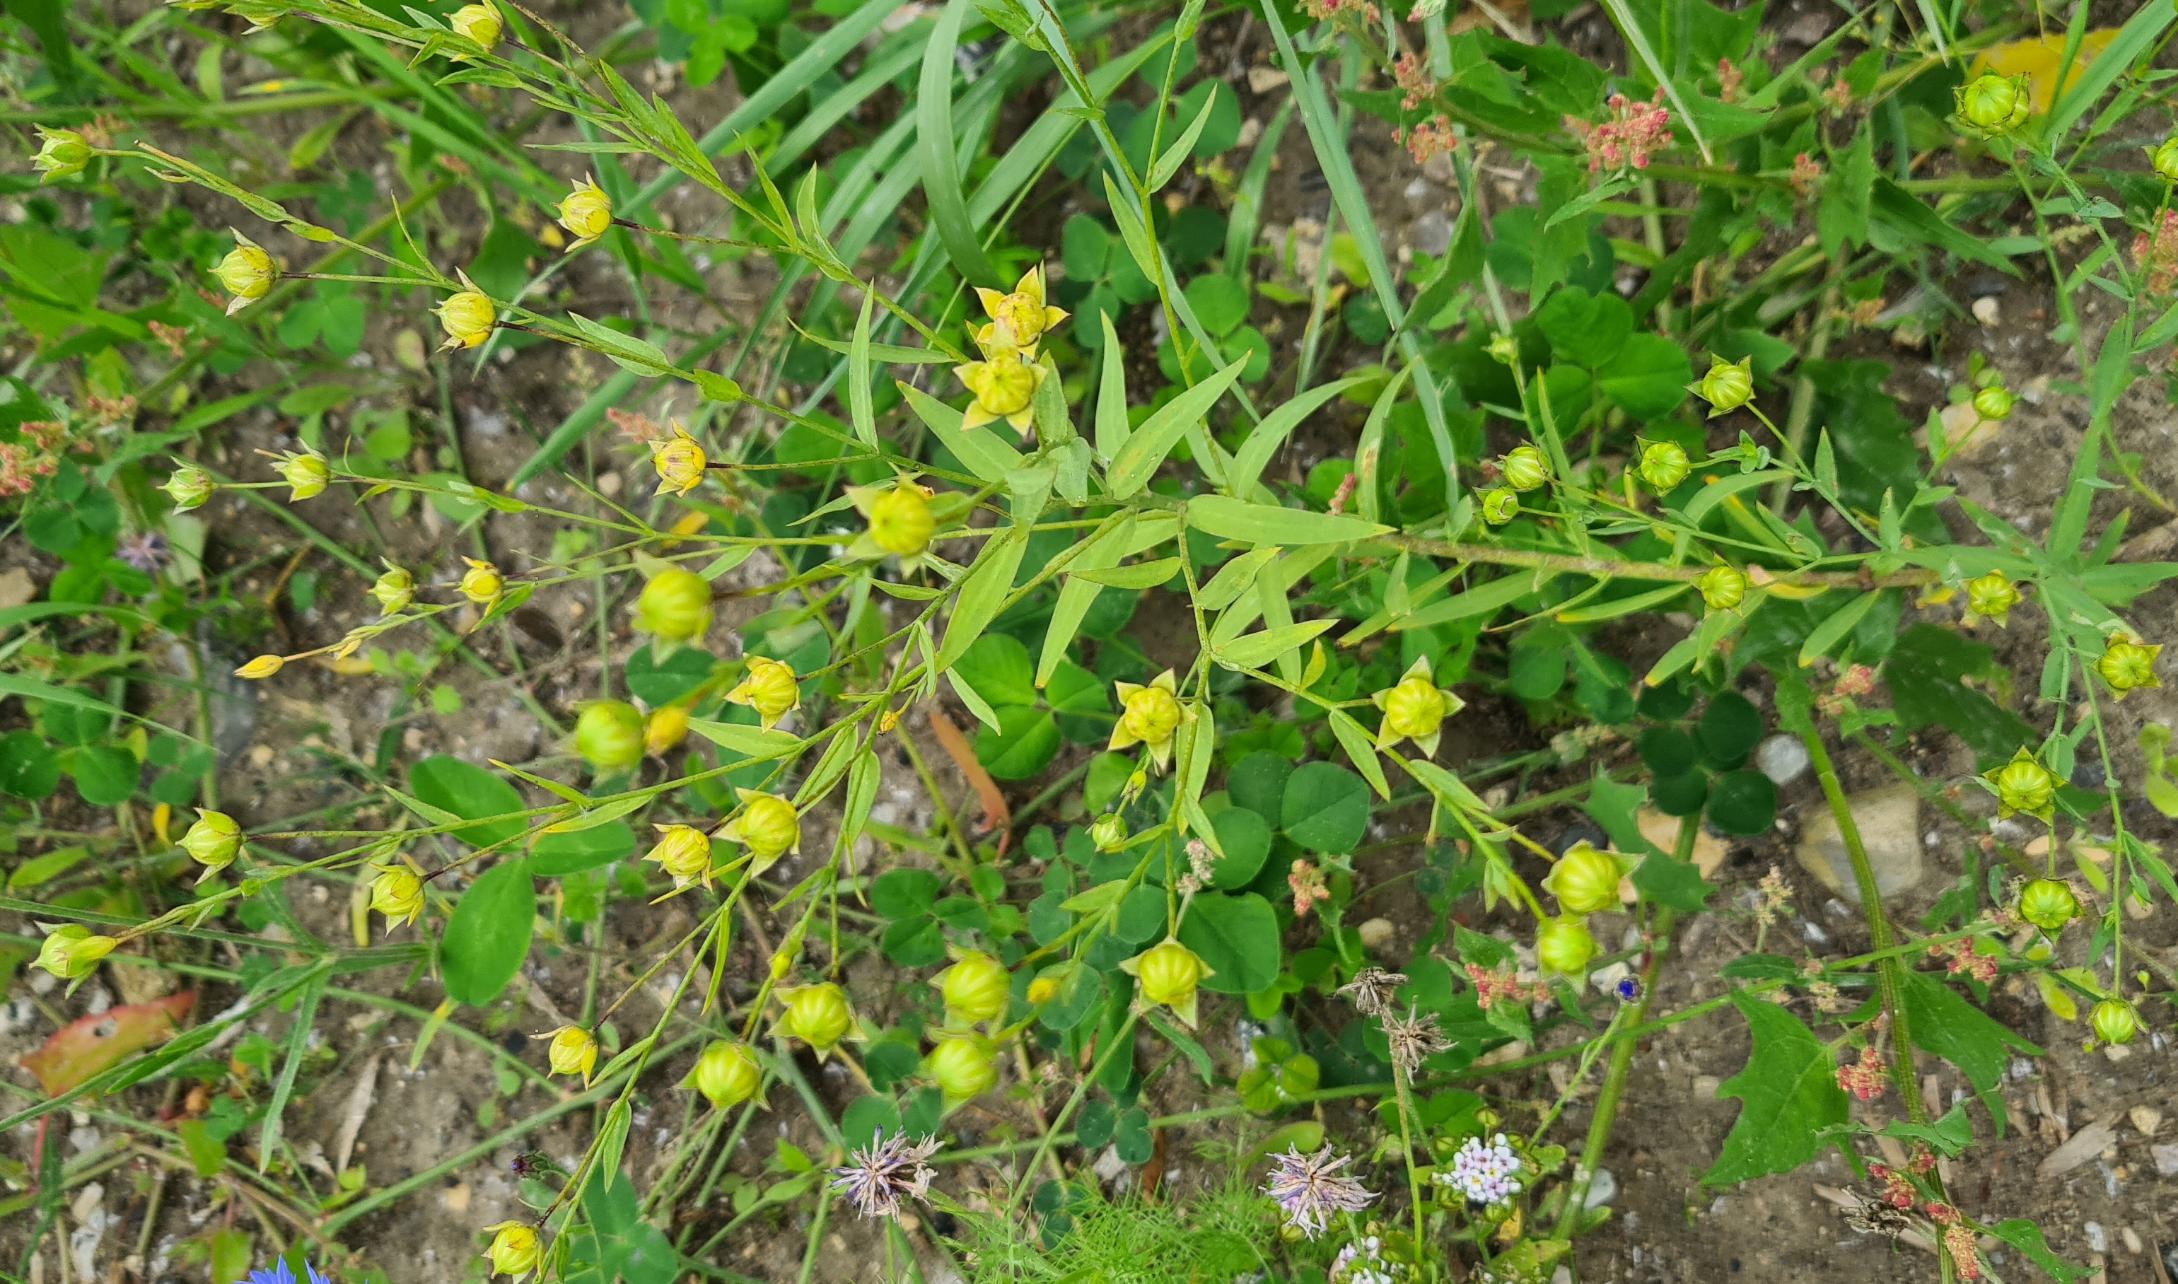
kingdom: Plantae
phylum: Tracheophyta
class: Magnoliopsida
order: Malpighiales
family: Linaceae
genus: Linum
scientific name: Linum usitatissimum
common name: Almindelig hør
